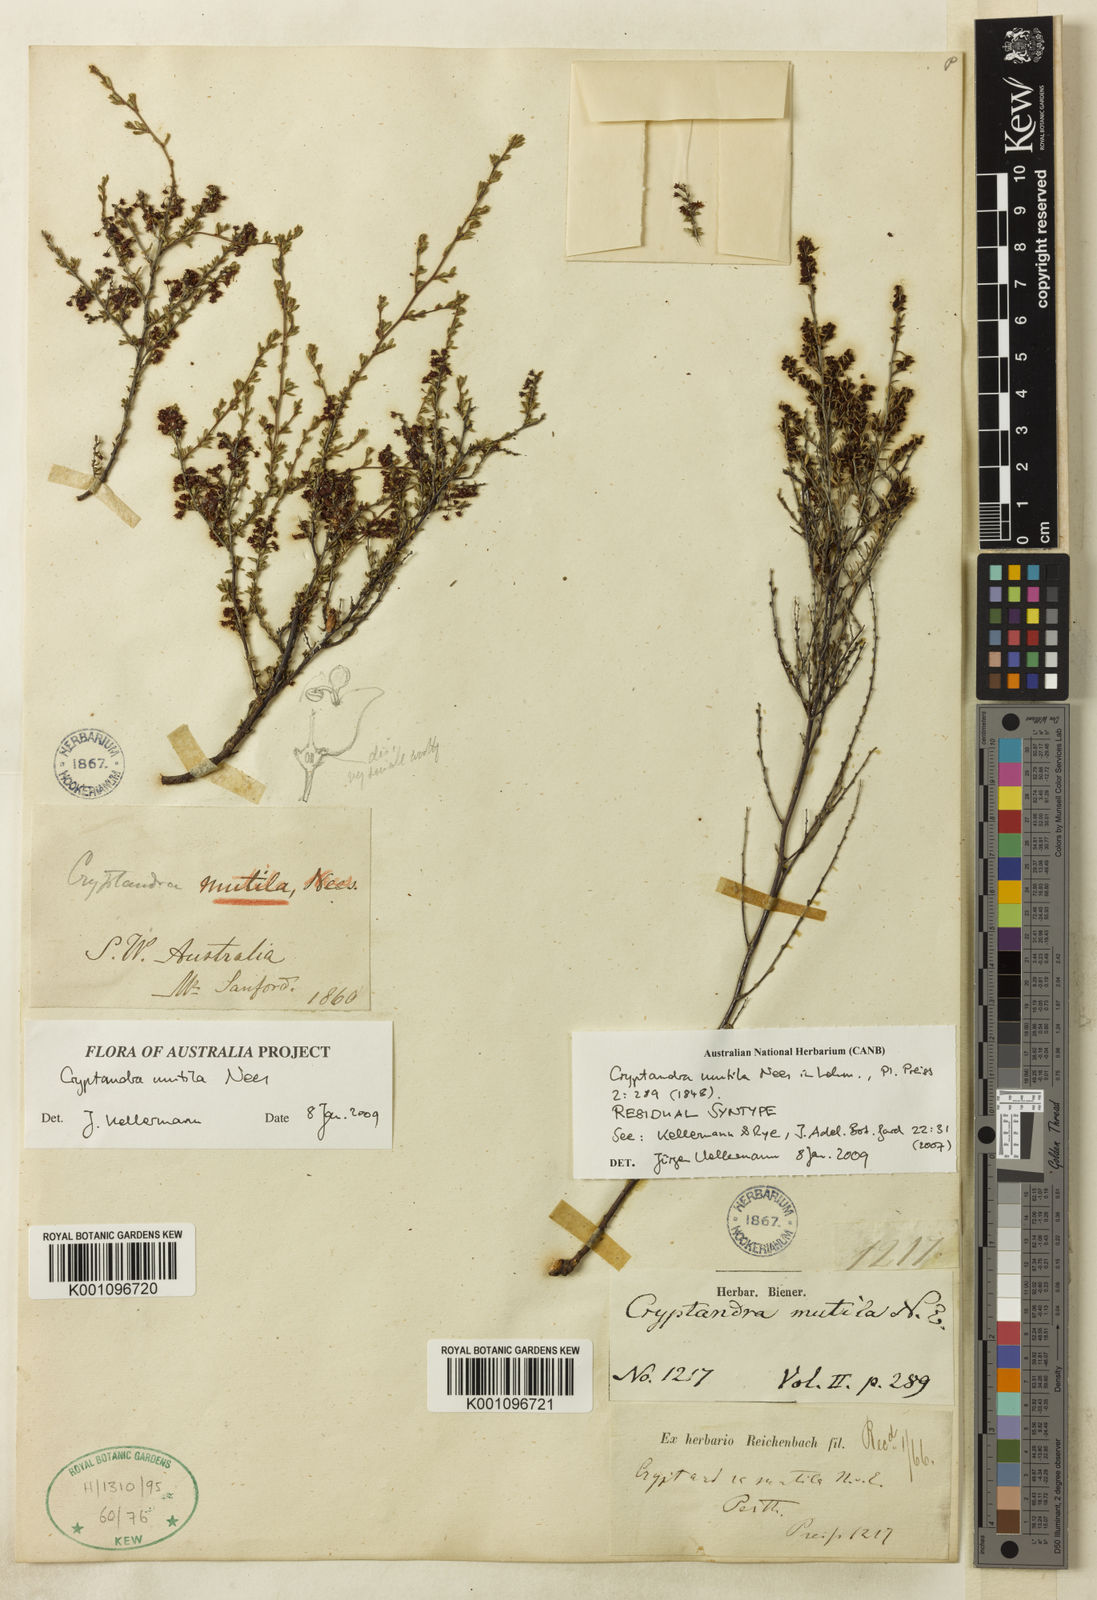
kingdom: Plantae
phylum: Tracheophyta
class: Magnoliopsida
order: Rosales
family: Rhamnaceae
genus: Cryptandra
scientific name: Cryptandra mutila
